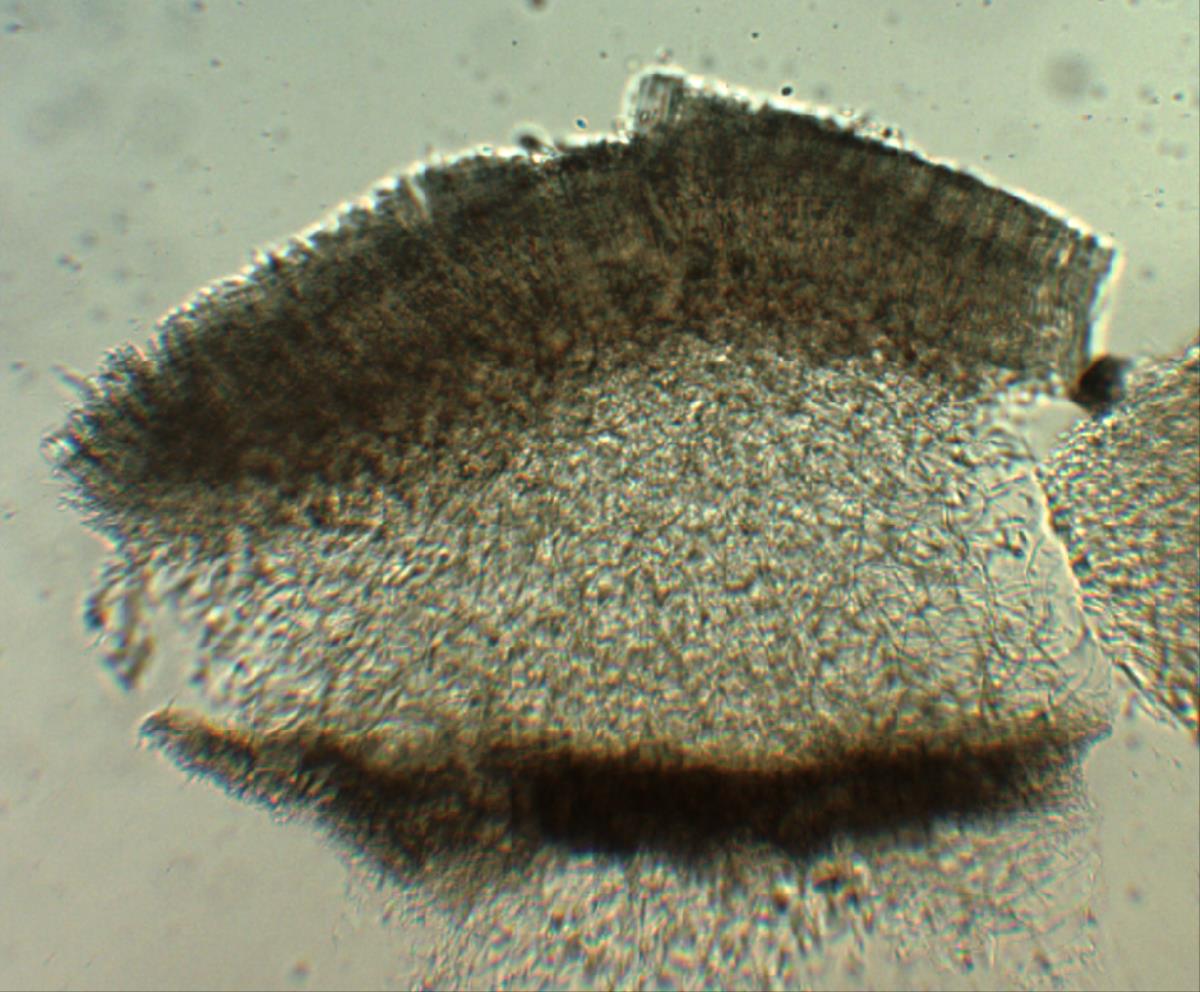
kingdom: Fungi
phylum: Ascomycota
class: Pezizomycetes
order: Pezizales
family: Pyronemataceae
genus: Plicaria
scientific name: Plicaria
